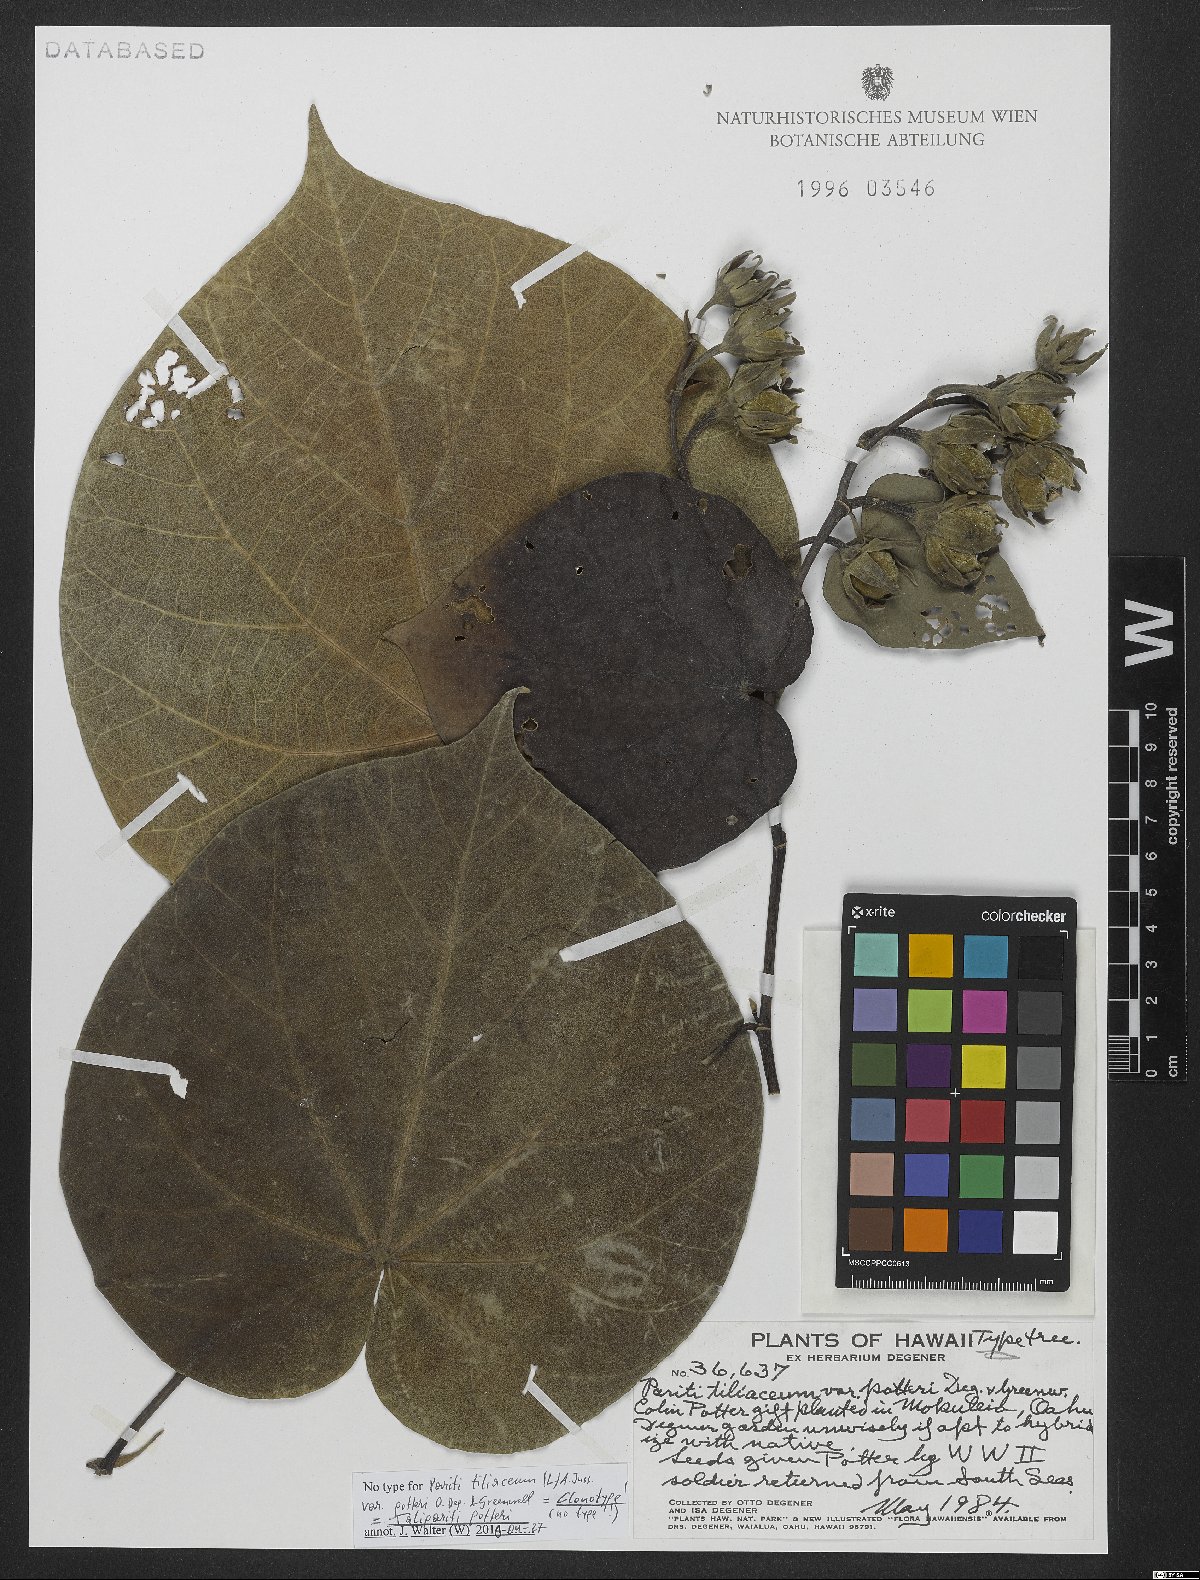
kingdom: Plantae
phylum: Tracheophyta
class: Magnoliopsida
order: Malvales
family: Malvaceae
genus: Talipariti
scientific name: Talipariti potteri
